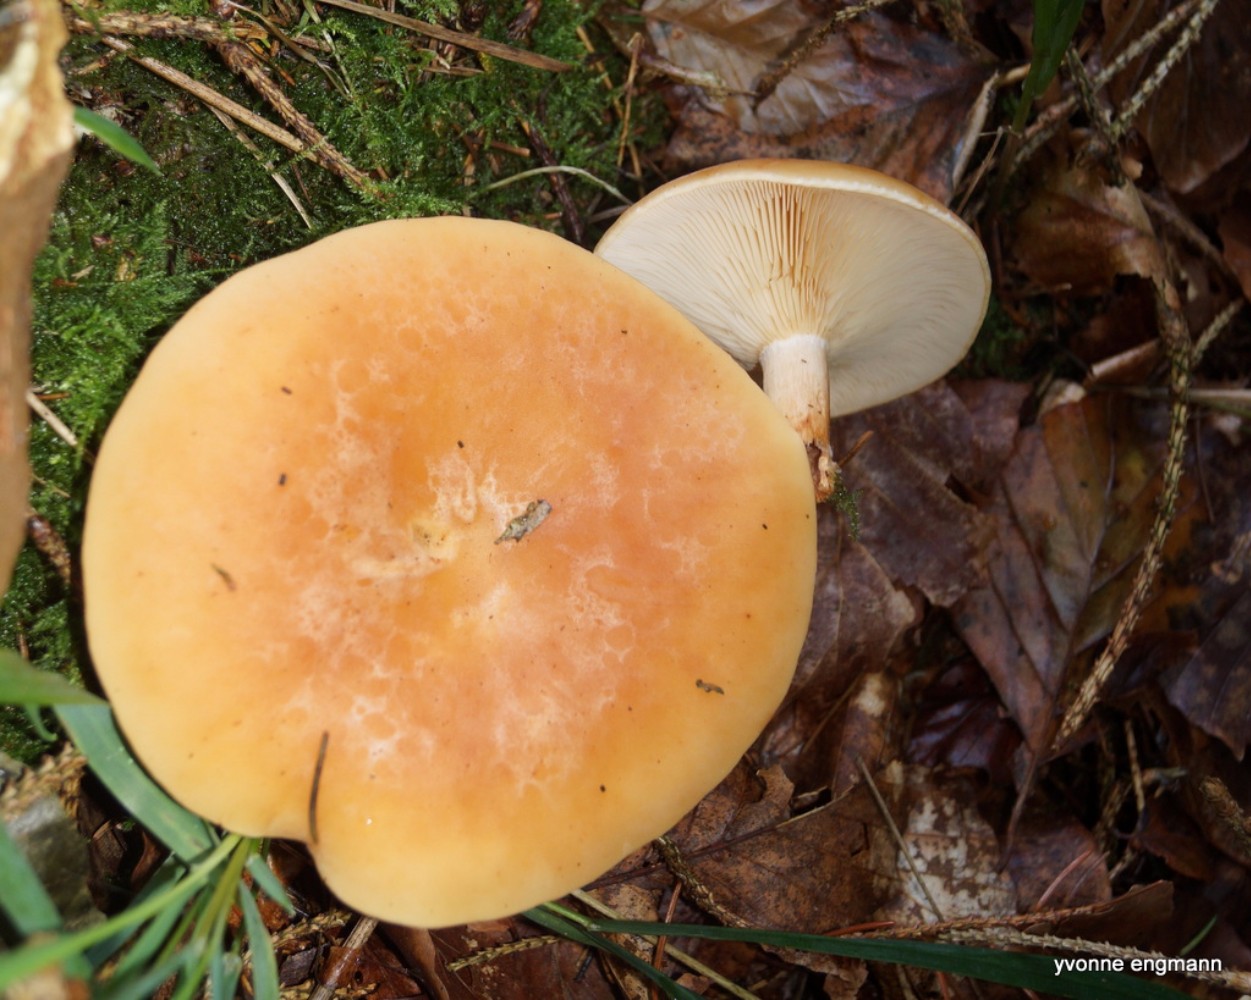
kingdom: Fungi
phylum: Basidiomycota
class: Agaricomycetes
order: Agaricales
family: Tricholomataceae
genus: Paralepista
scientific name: Paralepista gilva
